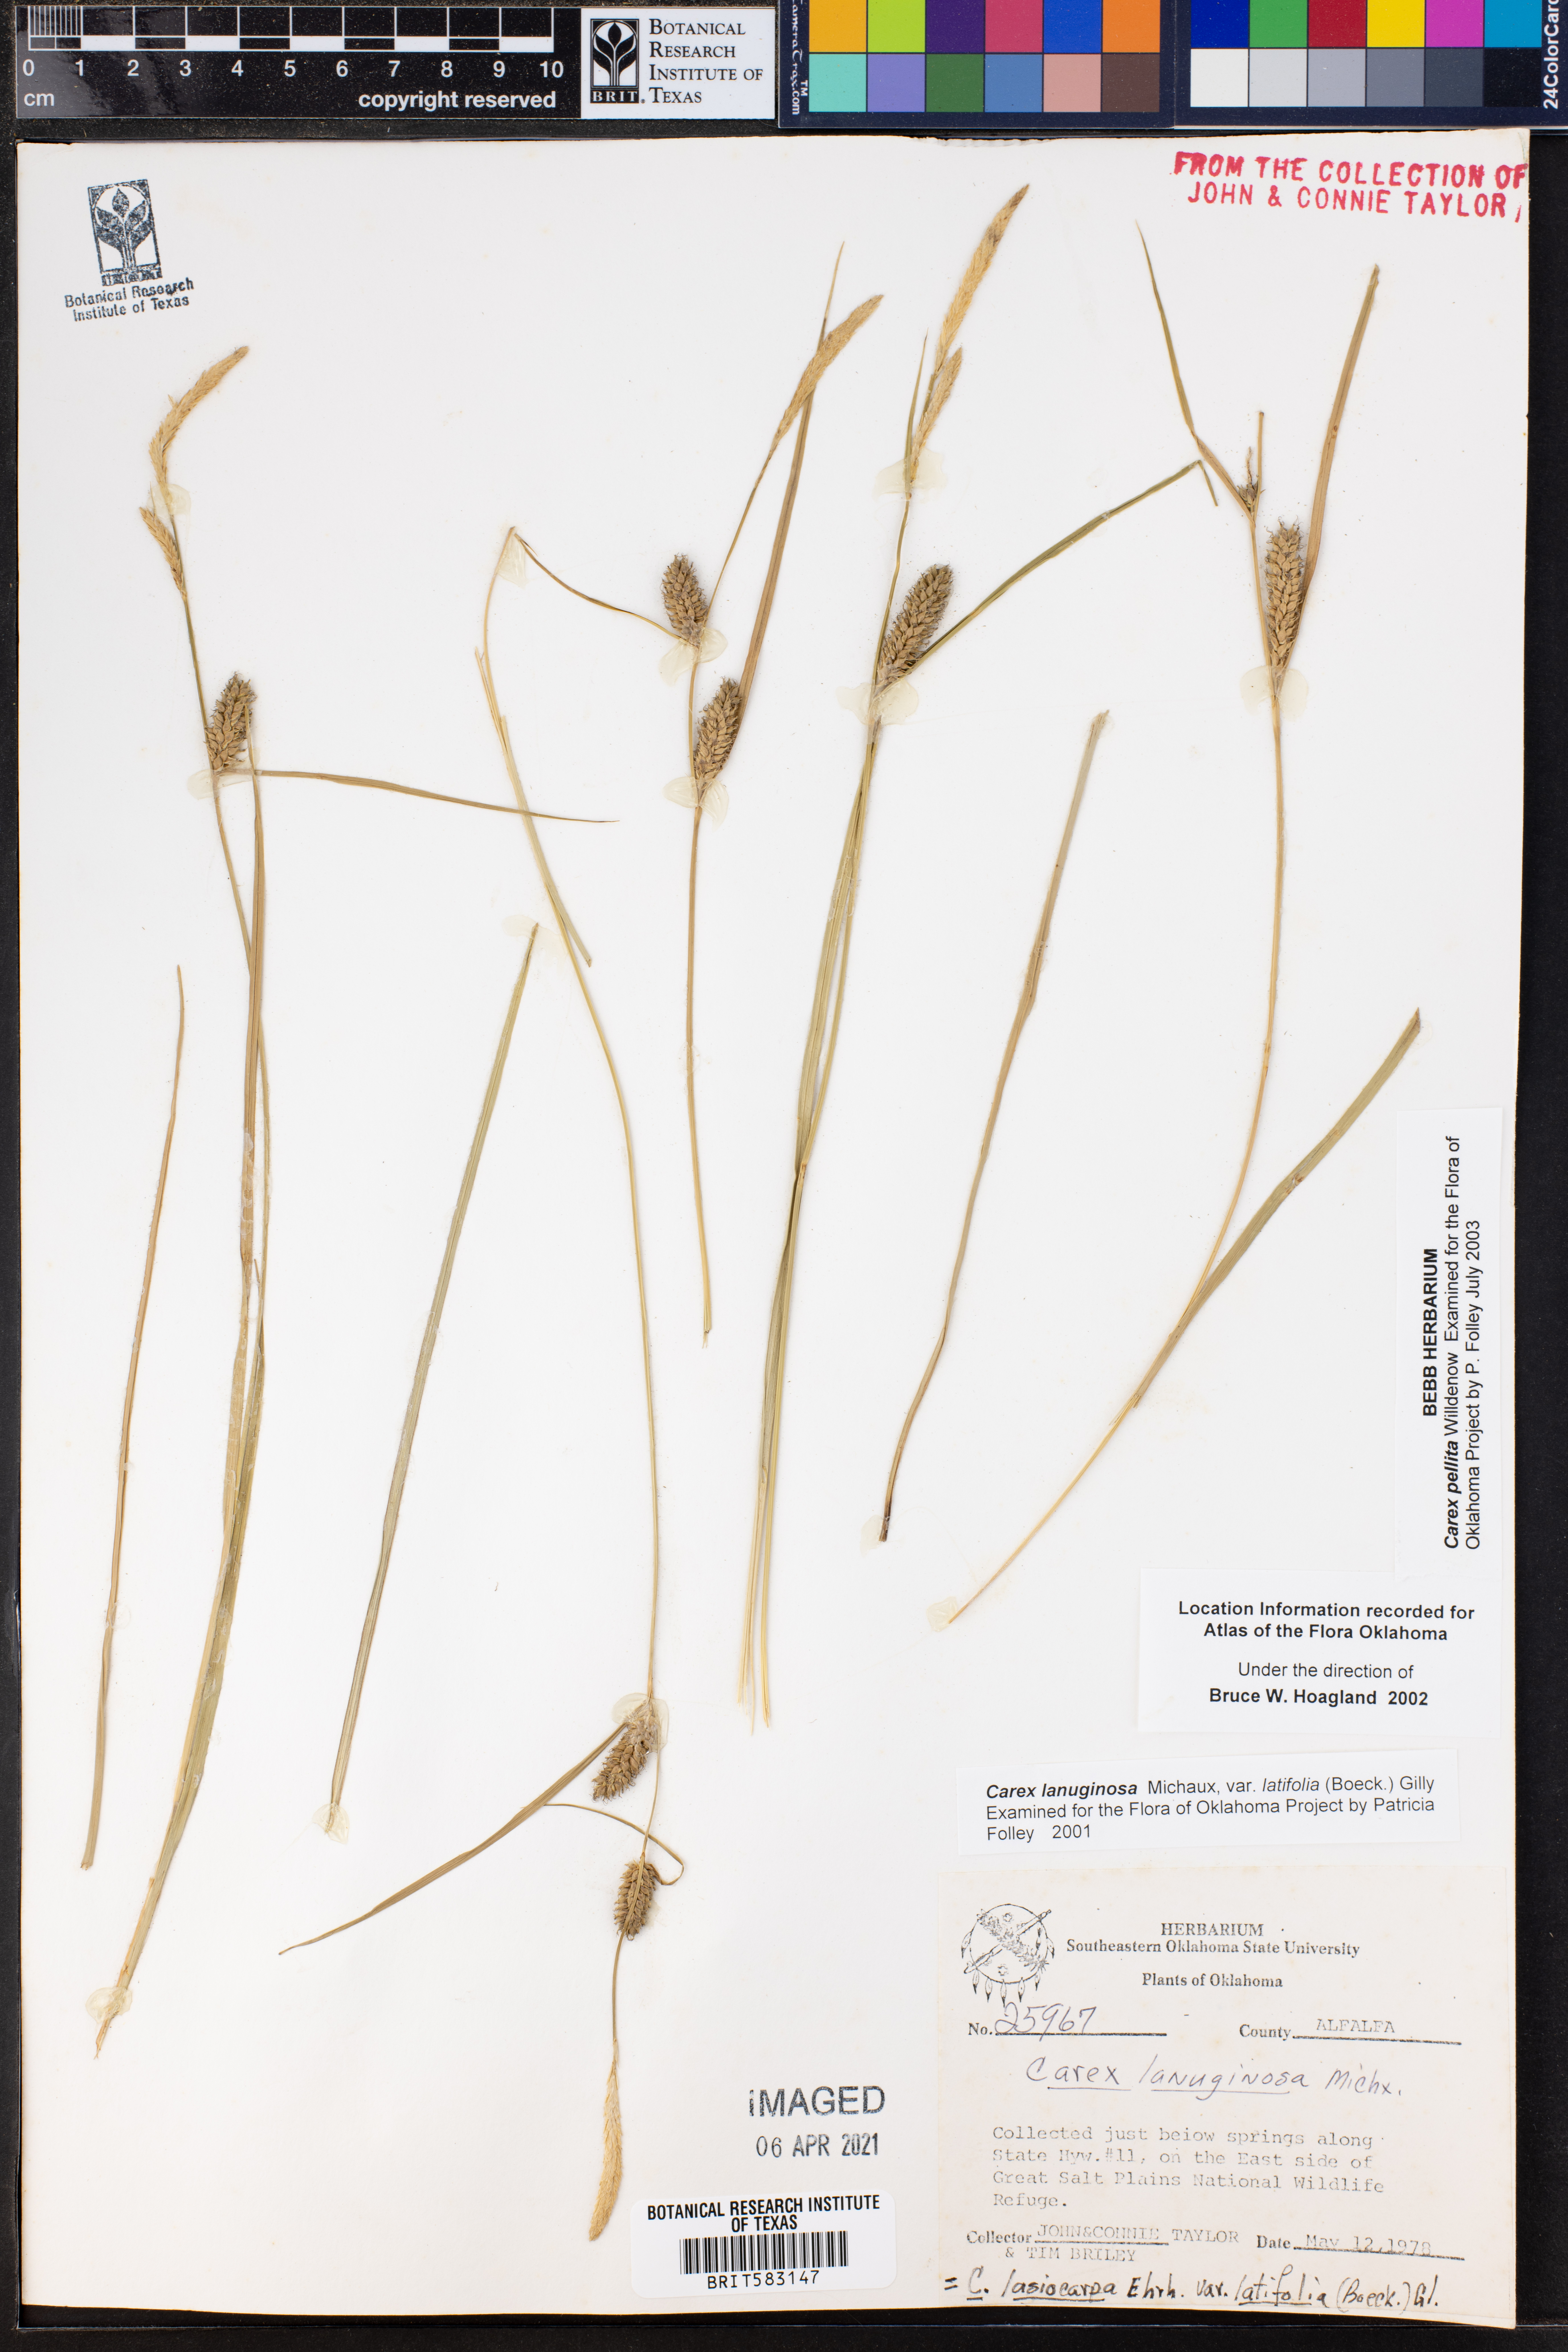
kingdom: Plantae
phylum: Tracheophyta
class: Liliopsida
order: Poales
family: Cyperaceae
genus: Carex
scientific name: Carex lasiocarpa
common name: Slender sedge
